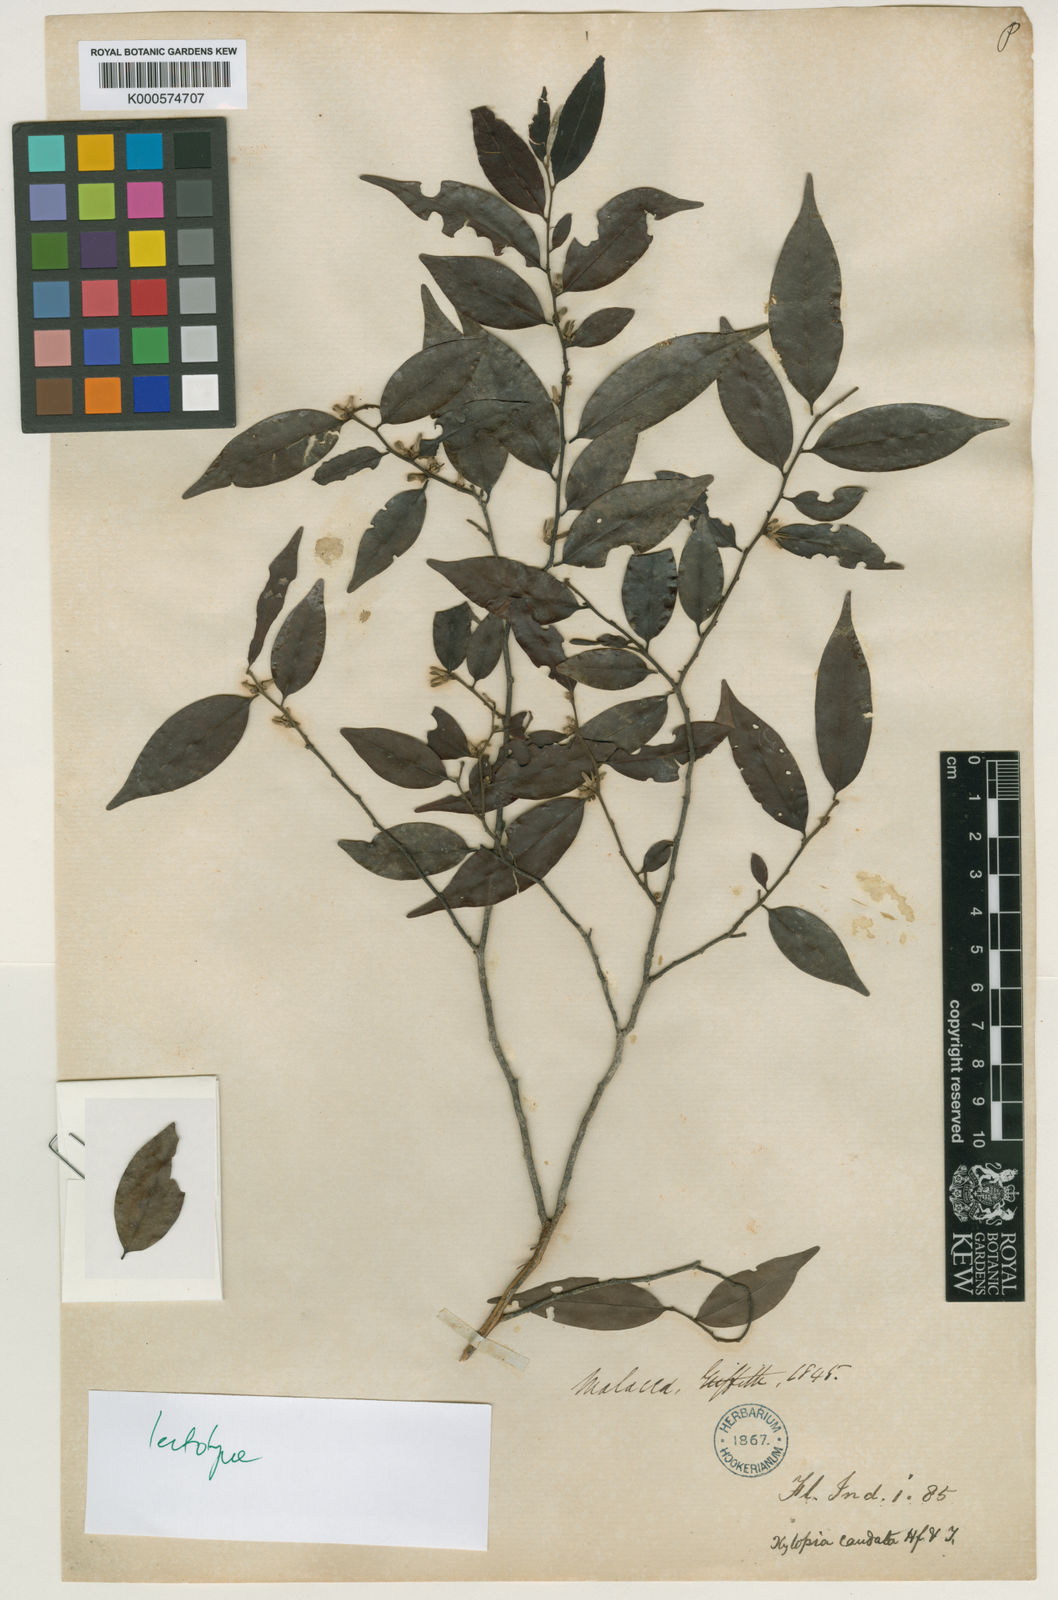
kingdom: Plantae
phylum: Tracheophyta
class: Magnoliopsida
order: Magnoliales
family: Annonaceae
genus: Xylopia
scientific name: Xylopia caudata
